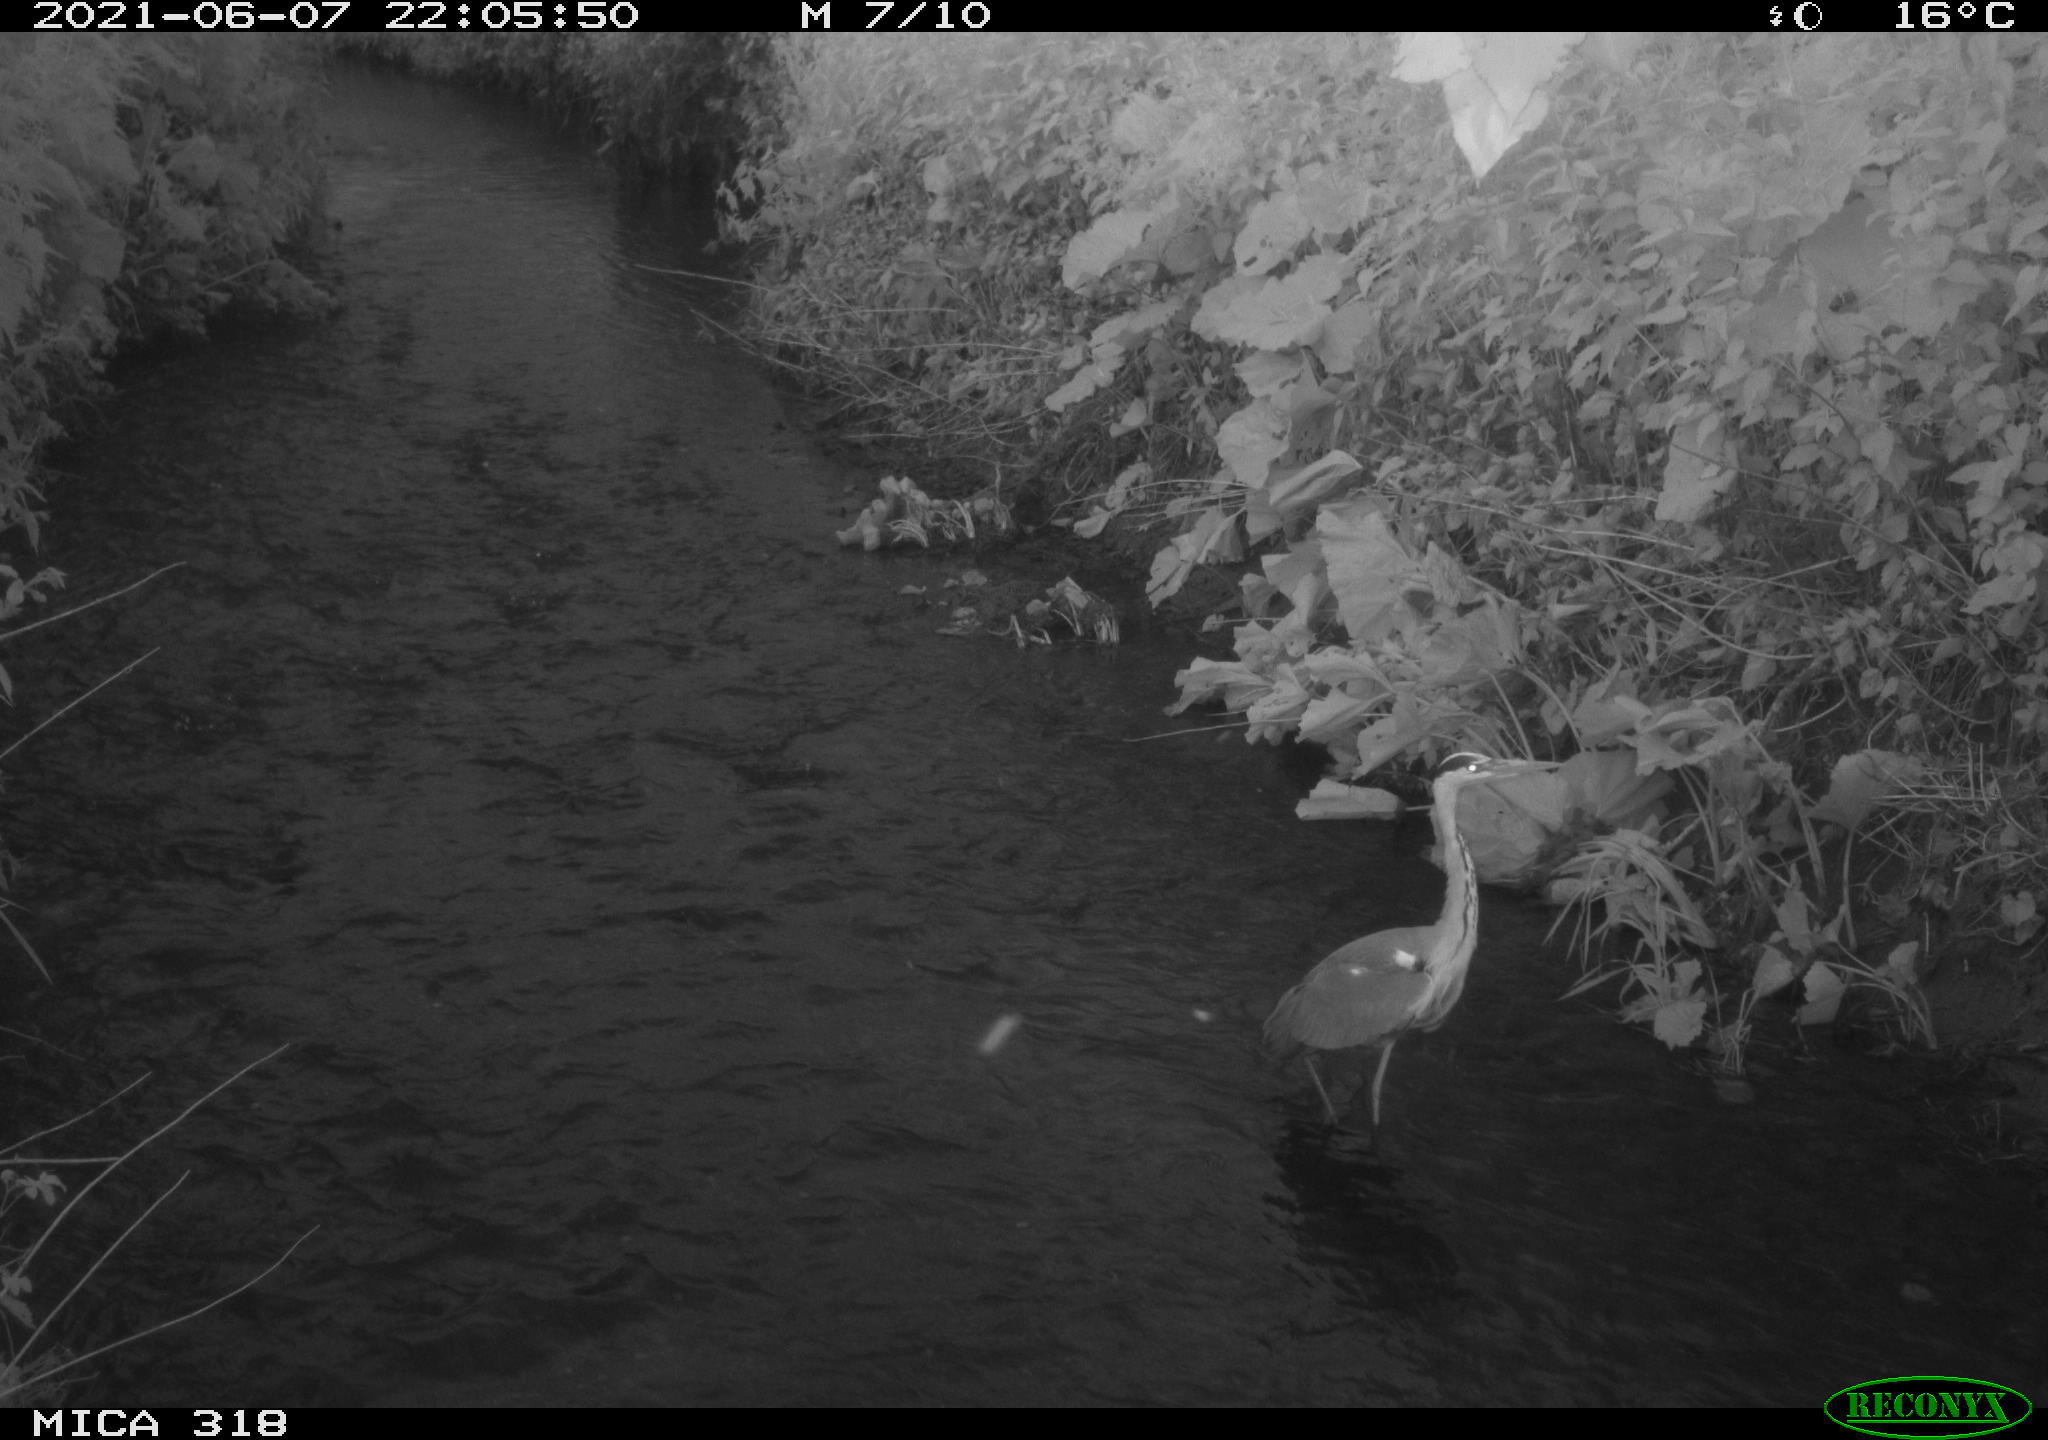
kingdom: Animalia
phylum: Chordata
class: Aves
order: Pelecaniformes
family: Ardeidae
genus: Ardea
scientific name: Ardea cinerea
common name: Grey heron
